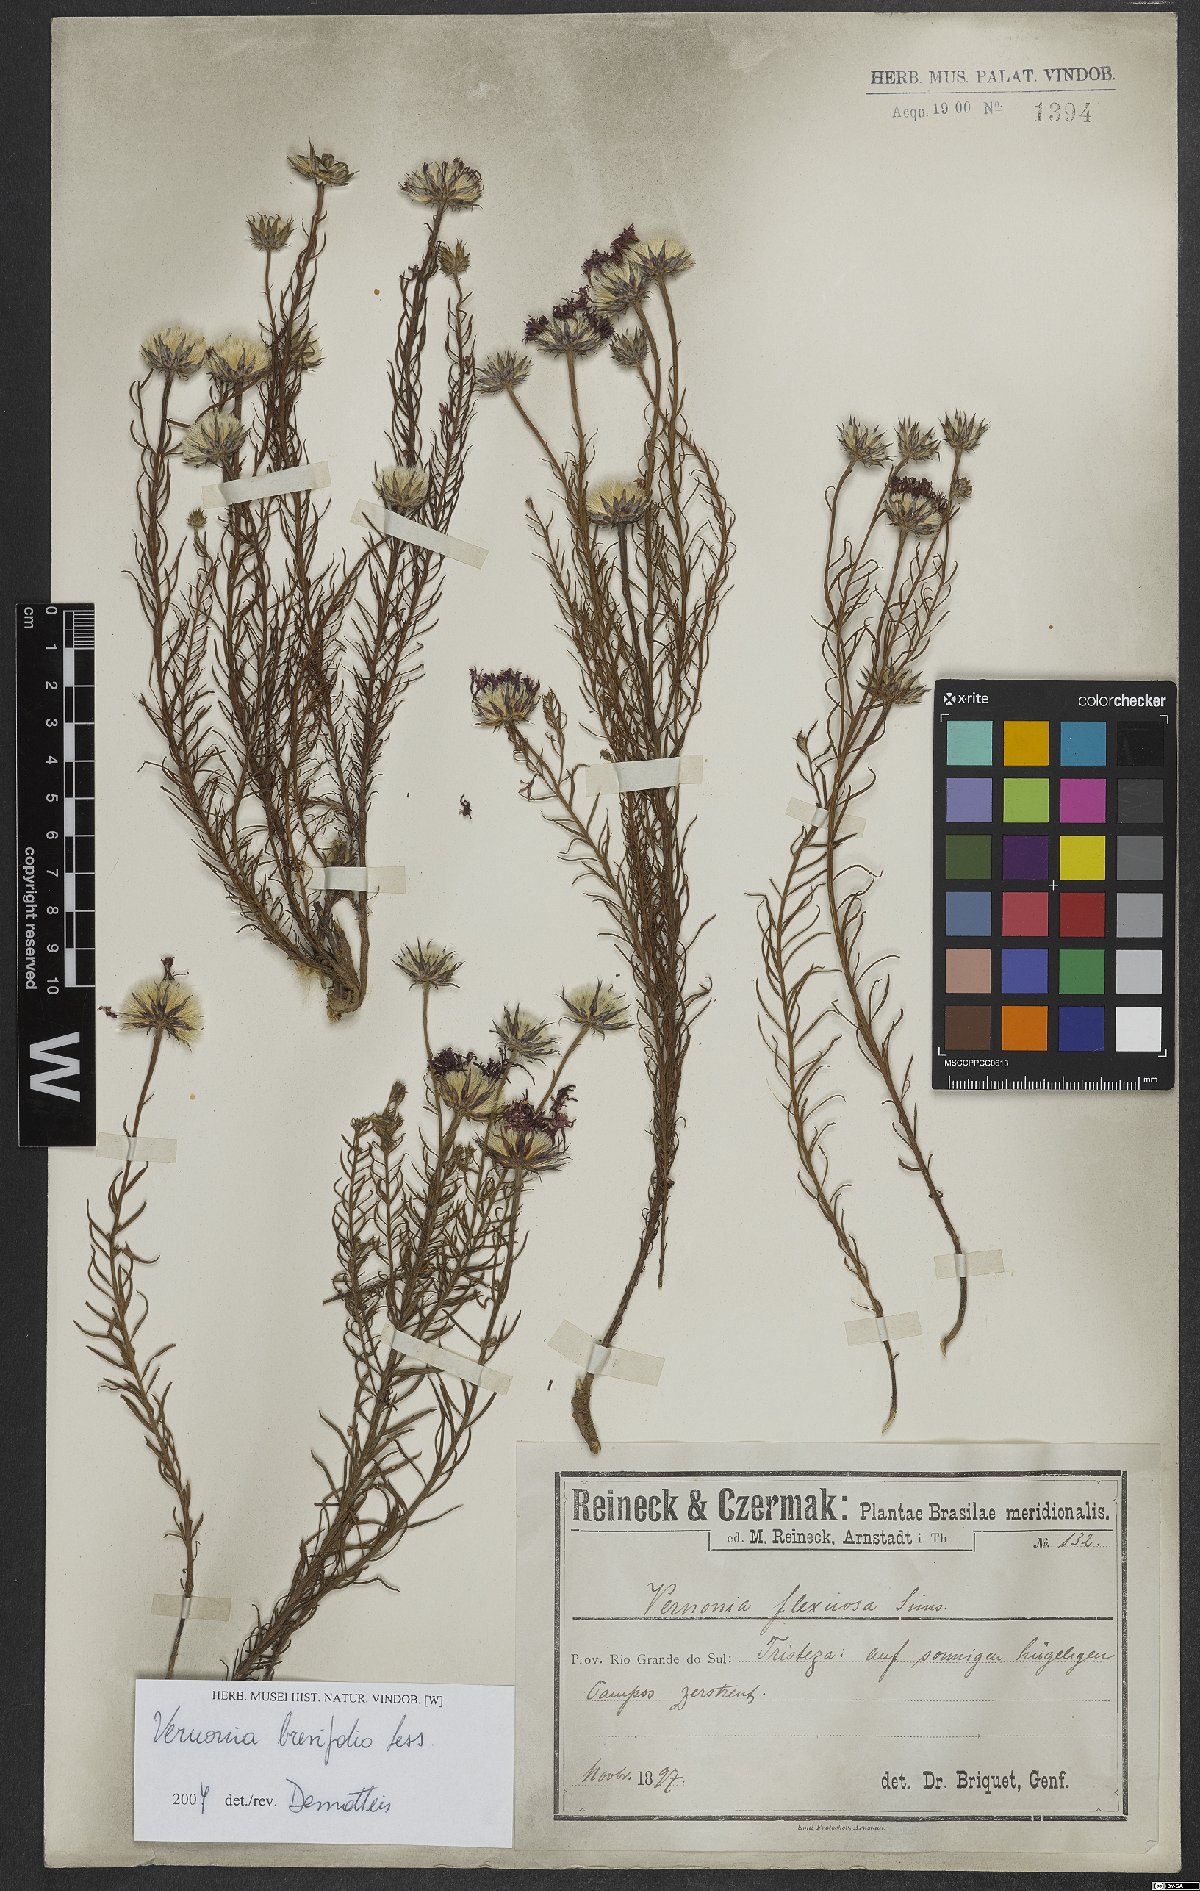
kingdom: Plantae
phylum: Tracheophyta
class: Magnoliopsida
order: Asterales
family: Asteraceae
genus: Lessingianthus
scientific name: Lessingianthus brevifolius
